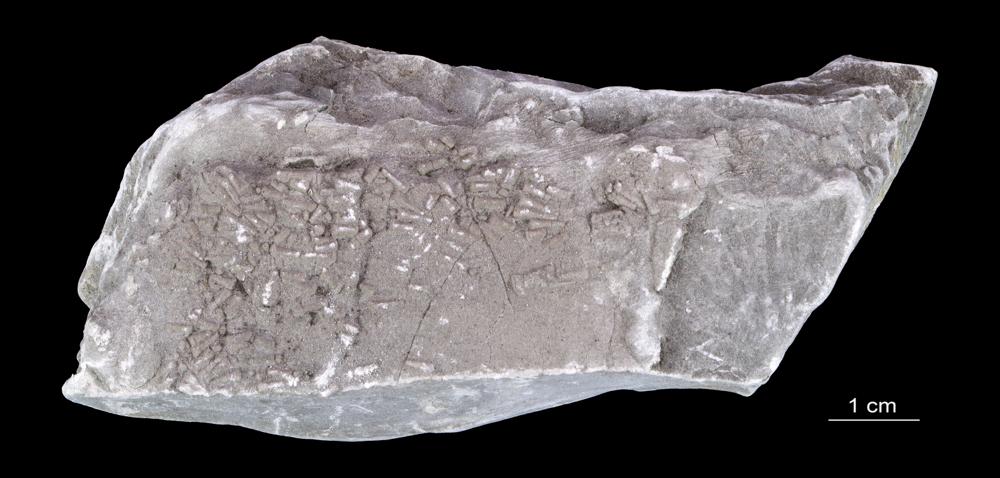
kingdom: Animalia
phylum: Annelida
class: Polychaeta
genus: Volborthella
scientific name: Volborthella tenuis
